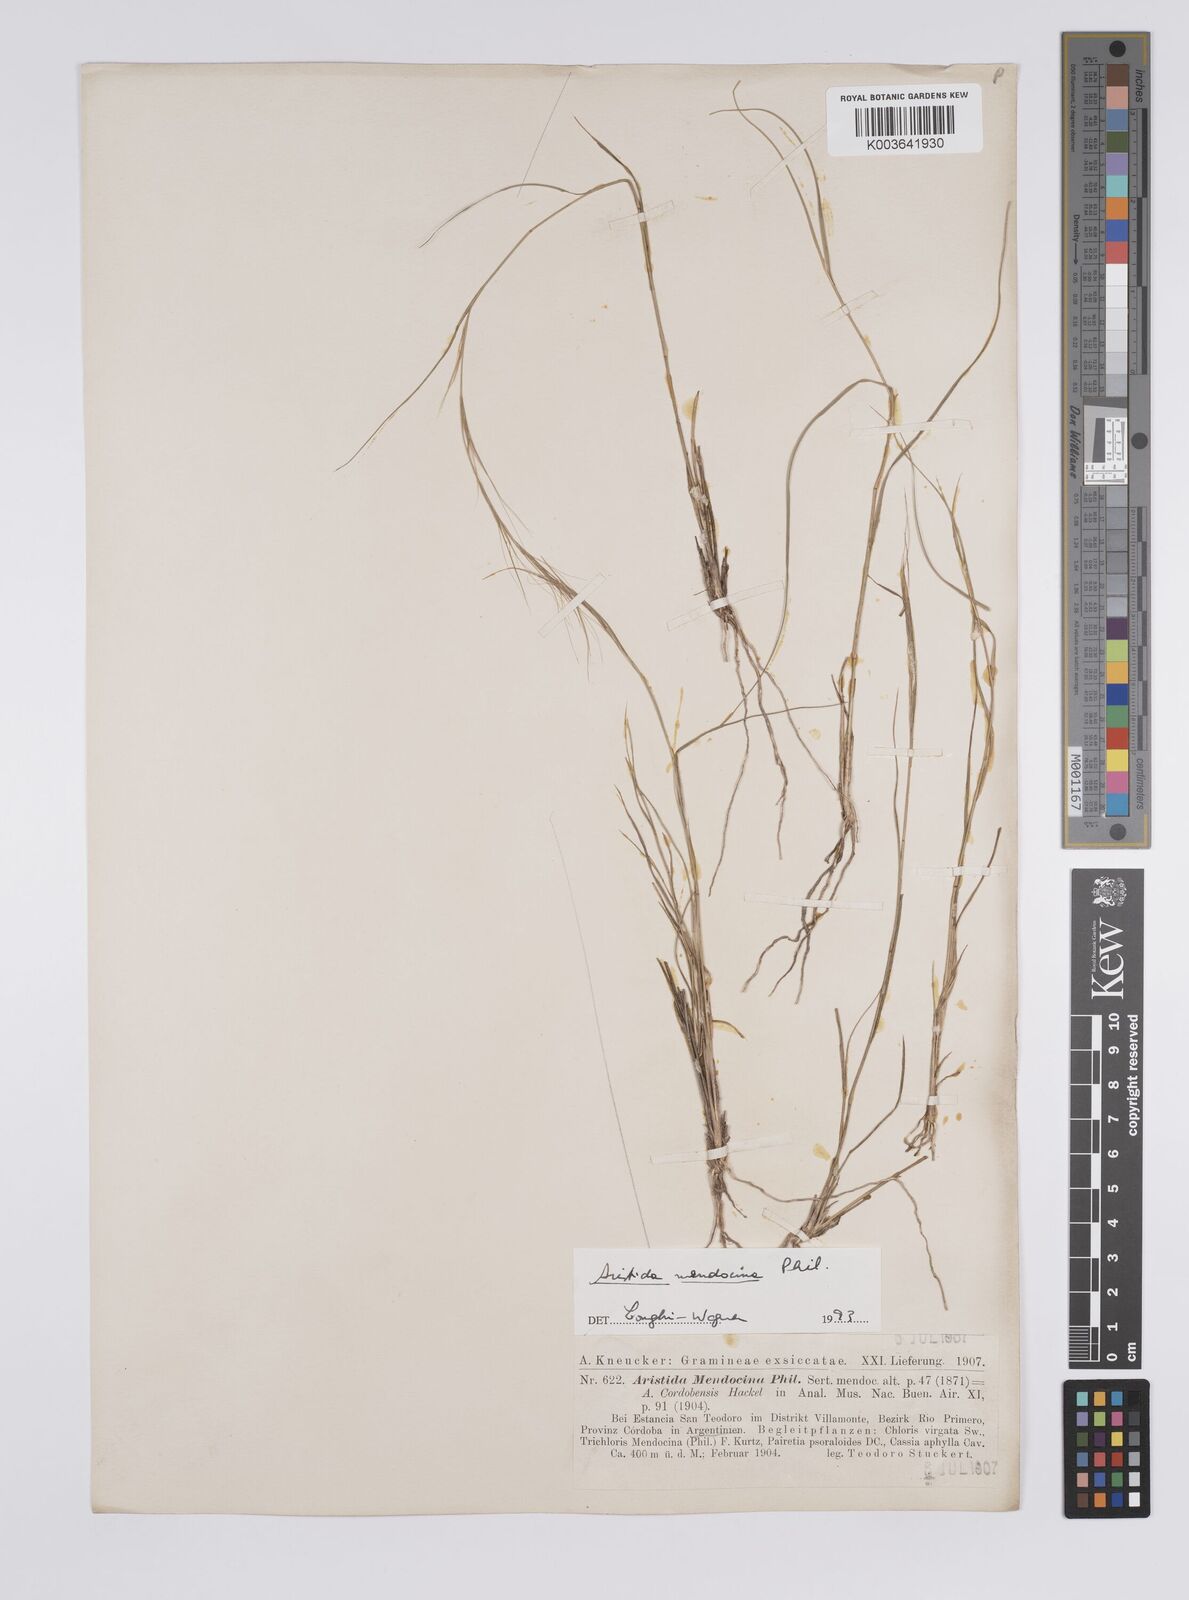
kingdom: Plantae
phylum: Tracheophyta
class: Liliopsida
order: Poales
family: Poaceae
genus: Aristida
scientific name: Aristida mendocina
